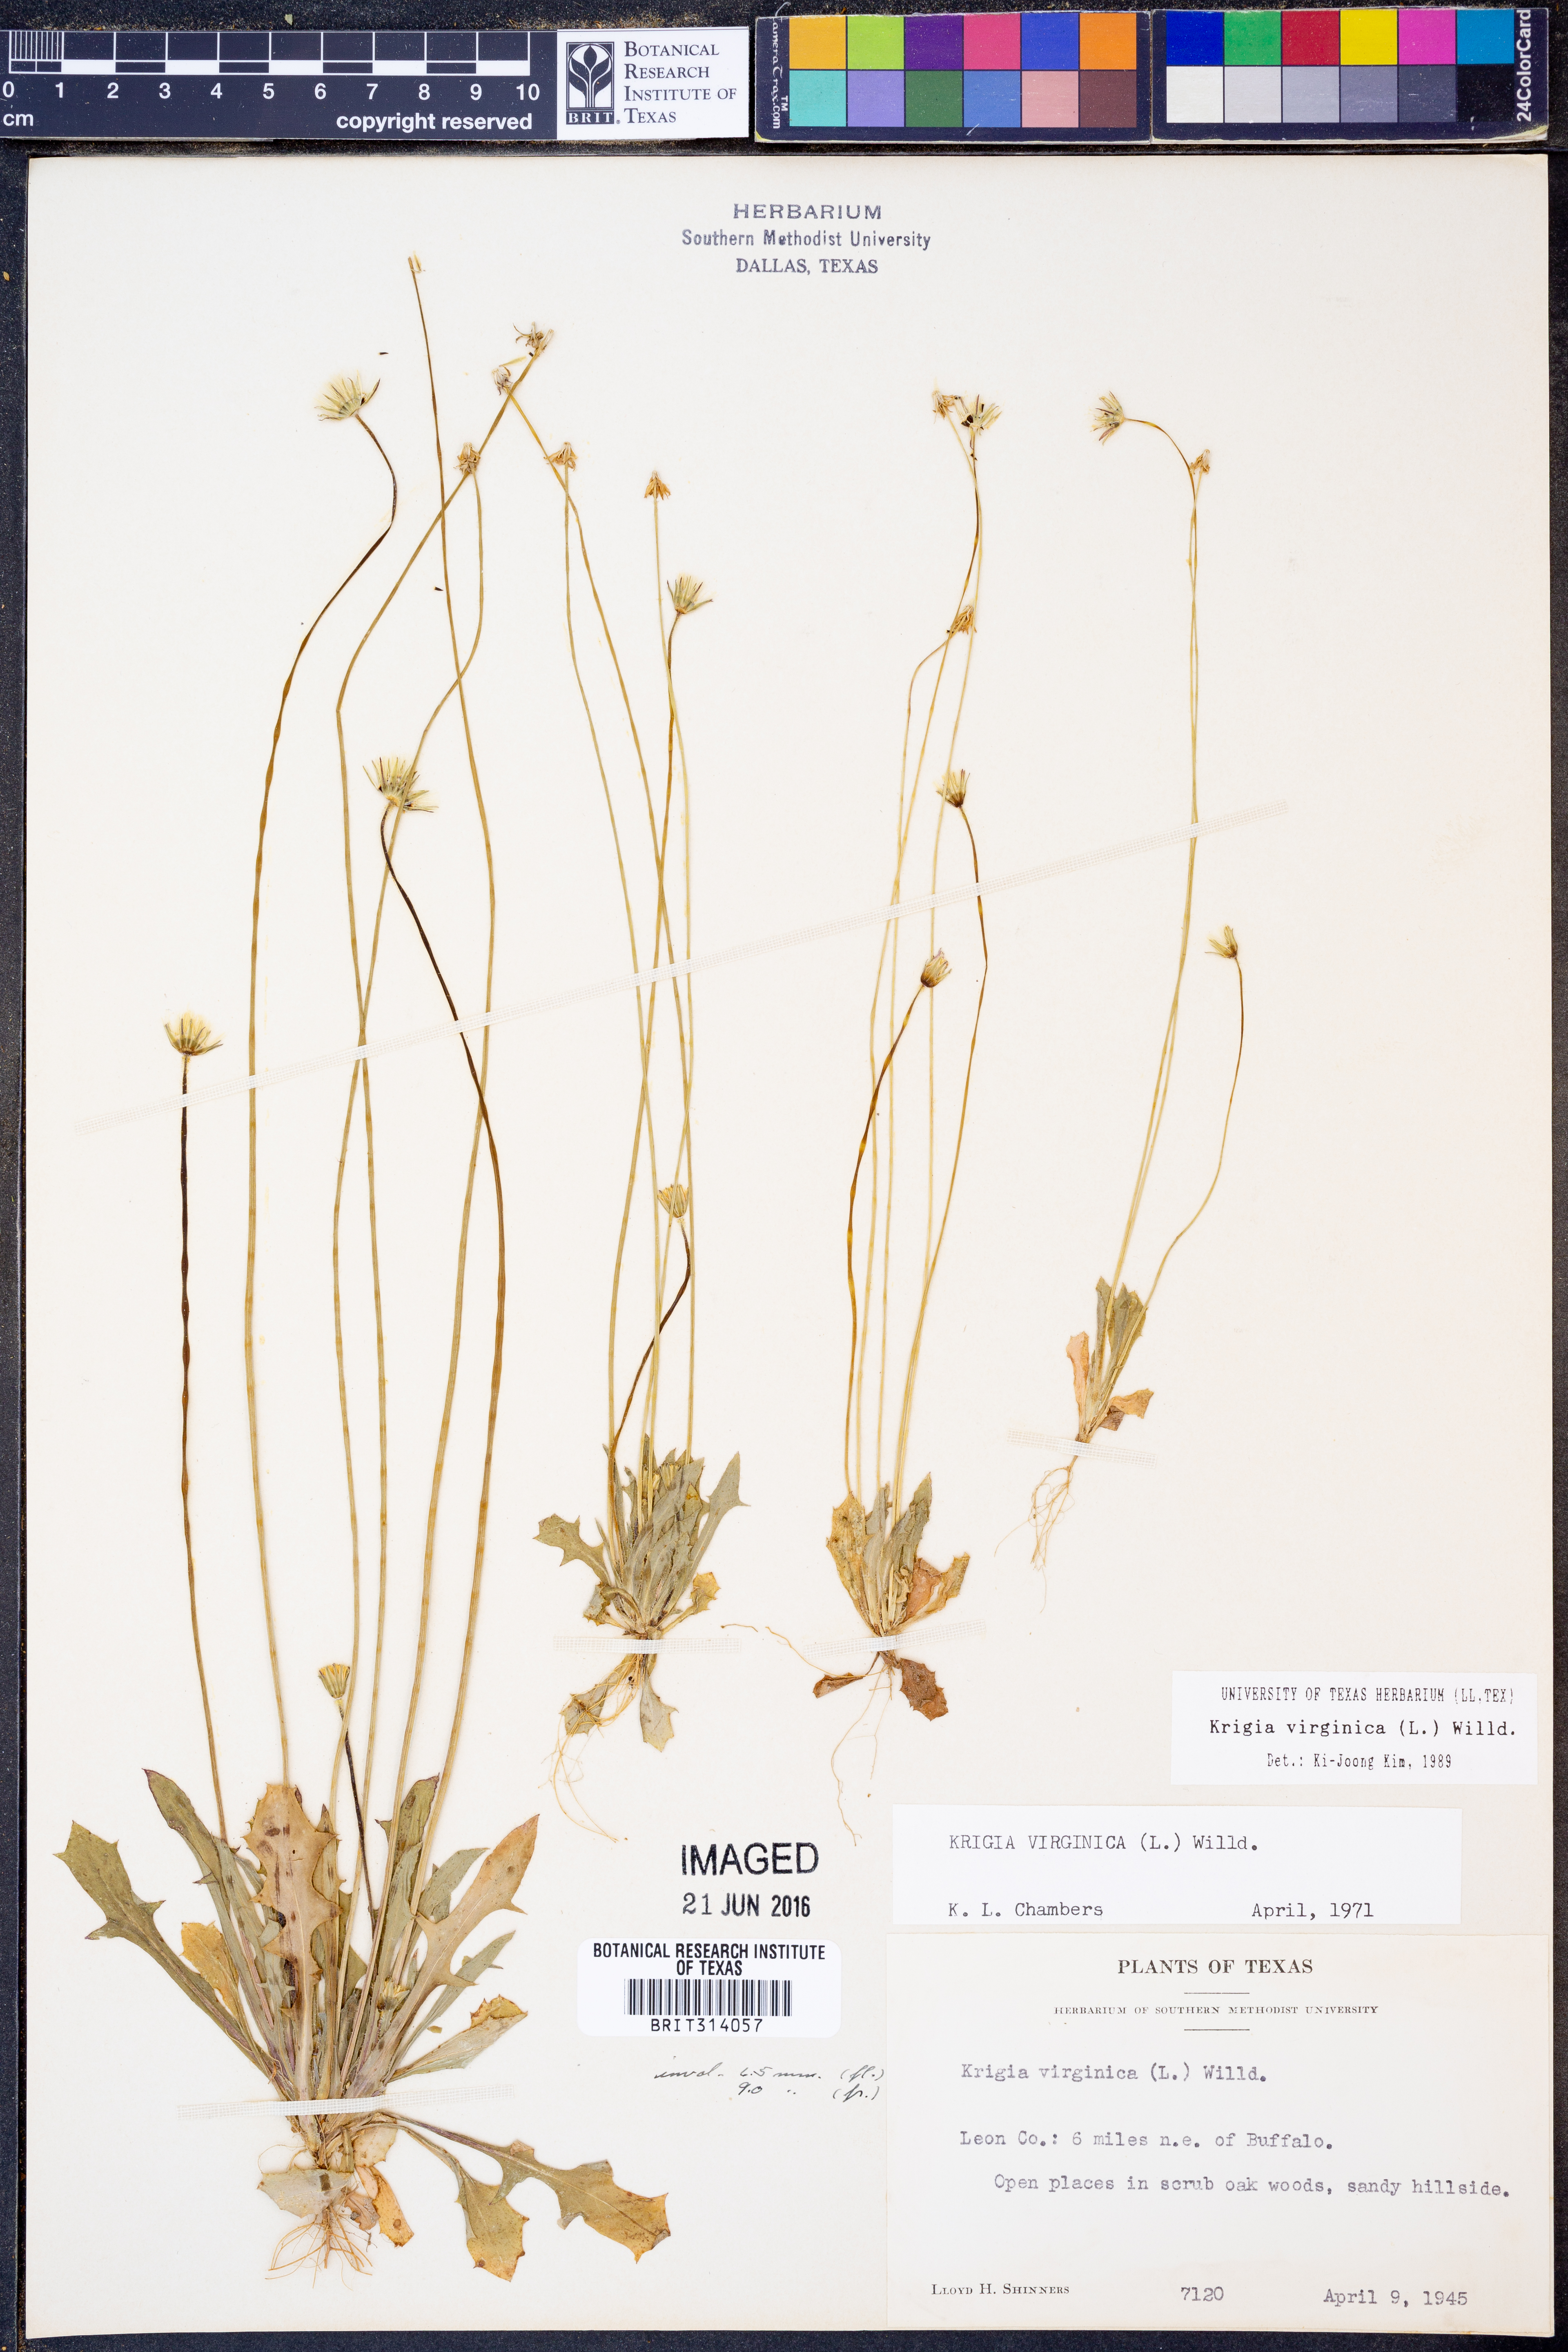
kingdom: Plantae
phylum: Tracheophyta
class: Magnoliopsida
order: Asterales
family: Asteraceae
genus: Krigia
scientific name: Krigia virginica
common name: Virginia dwarf-dandelion
